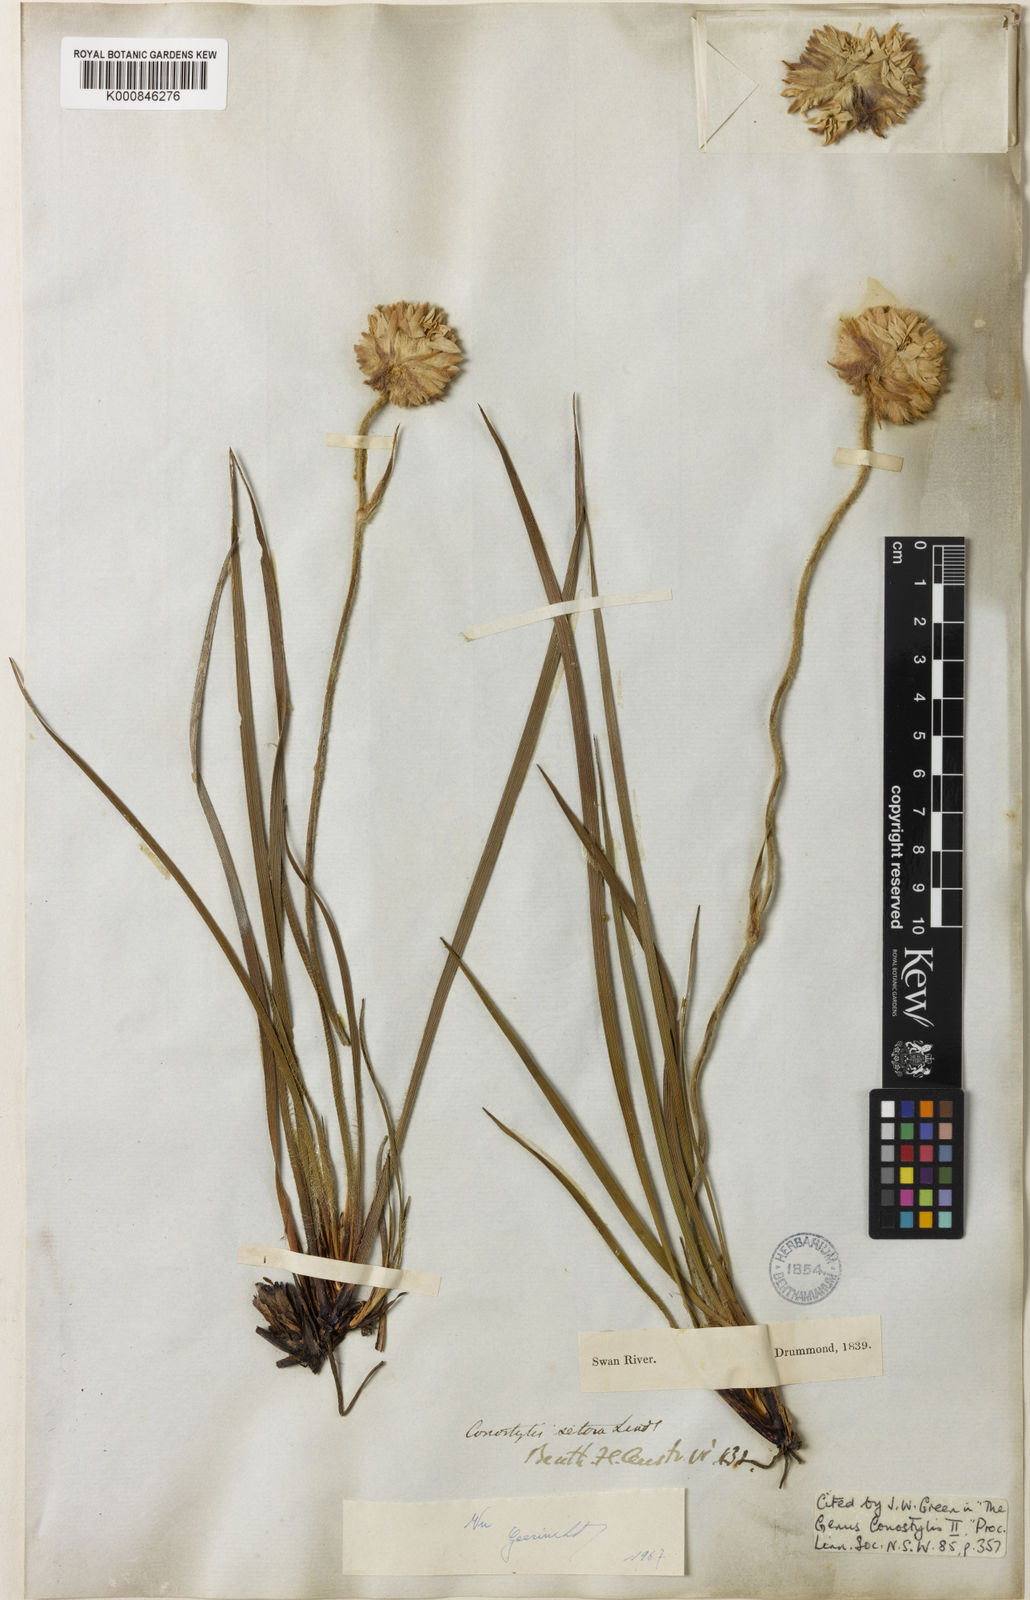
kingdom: Plantae
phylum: Tracheophyta
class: Liliopsida
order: Commelinales
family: Haemodoraceae
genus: Conostylis
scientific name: Conostylis setosa
